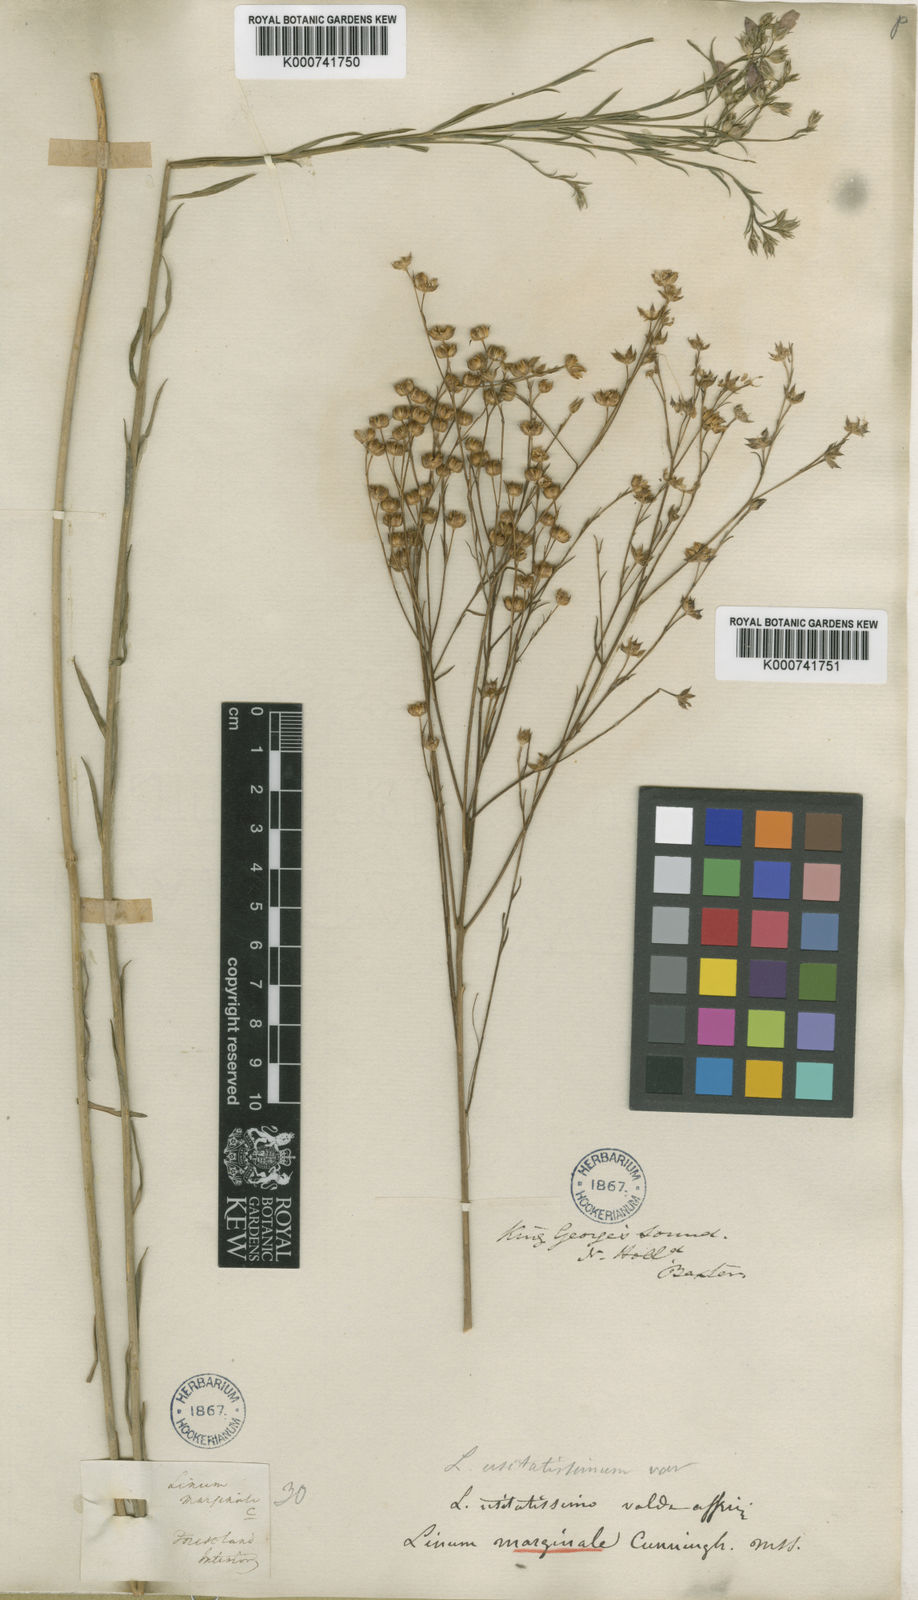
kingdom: Plantae
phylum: Tracheophyta
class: Magnoliopsida
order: Malpighiales
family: Linaceae
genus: Linum
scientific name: Linum marginale
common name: Wild flax
